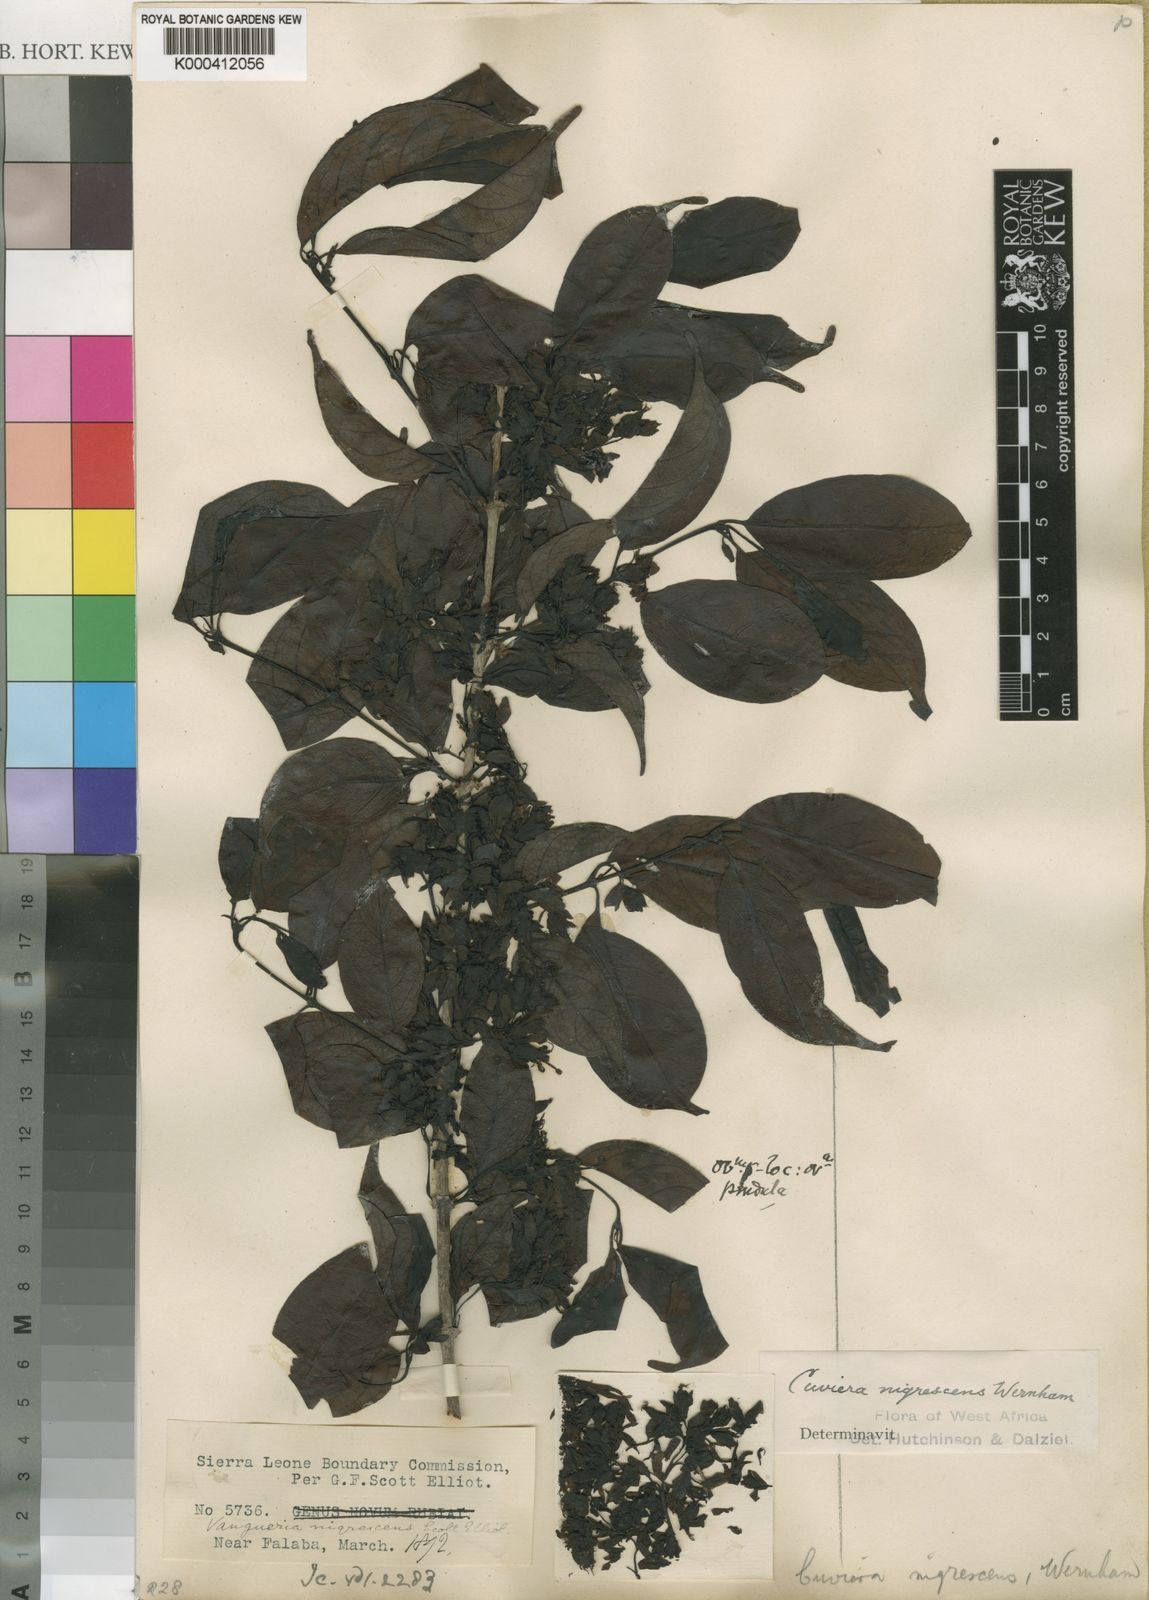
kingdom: Plantae
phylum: Tracheophyta
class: Magnoliopsida
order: Gentianales
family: Rubiaceae
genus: Cuviera
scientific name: Cuviera nigrescens
